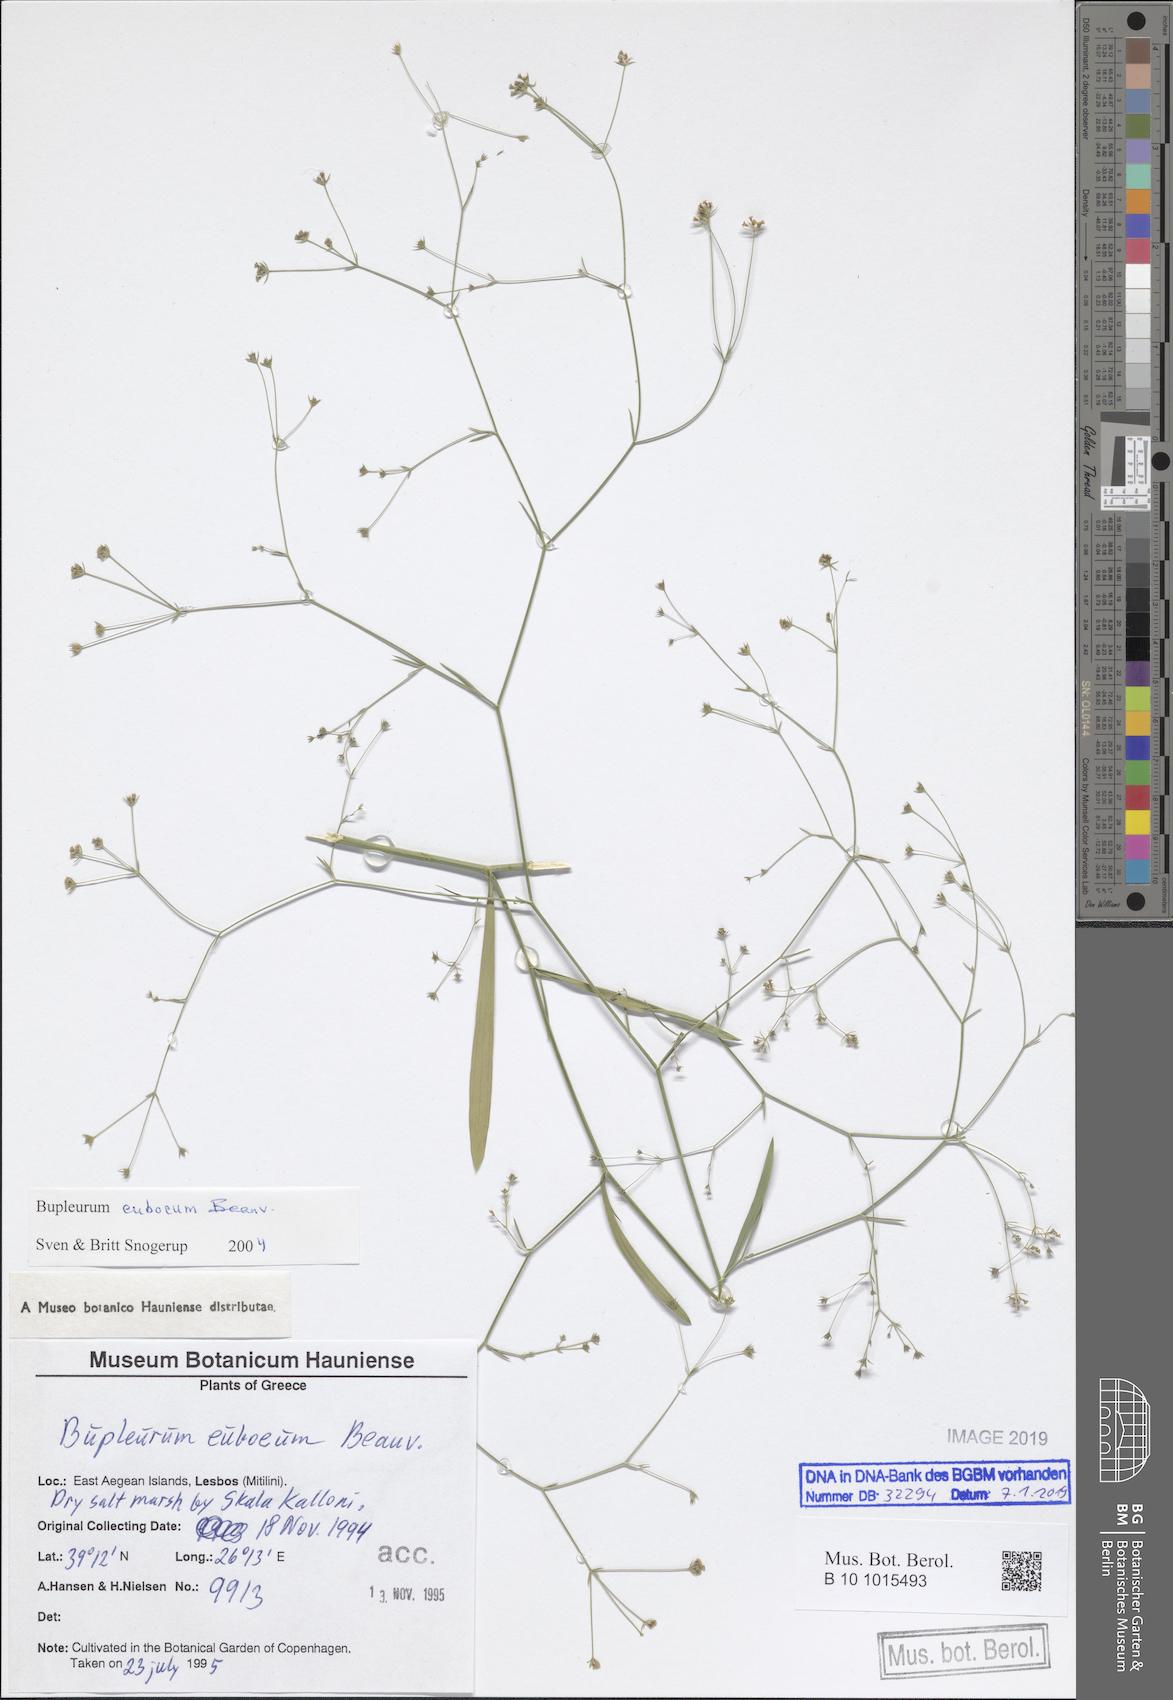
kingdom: Plantae
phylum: Tracheophyta
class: Magnoliopsida
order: Apiales
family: Apiaceae
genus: Bupleurum
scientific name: Bupleurum euboeum
